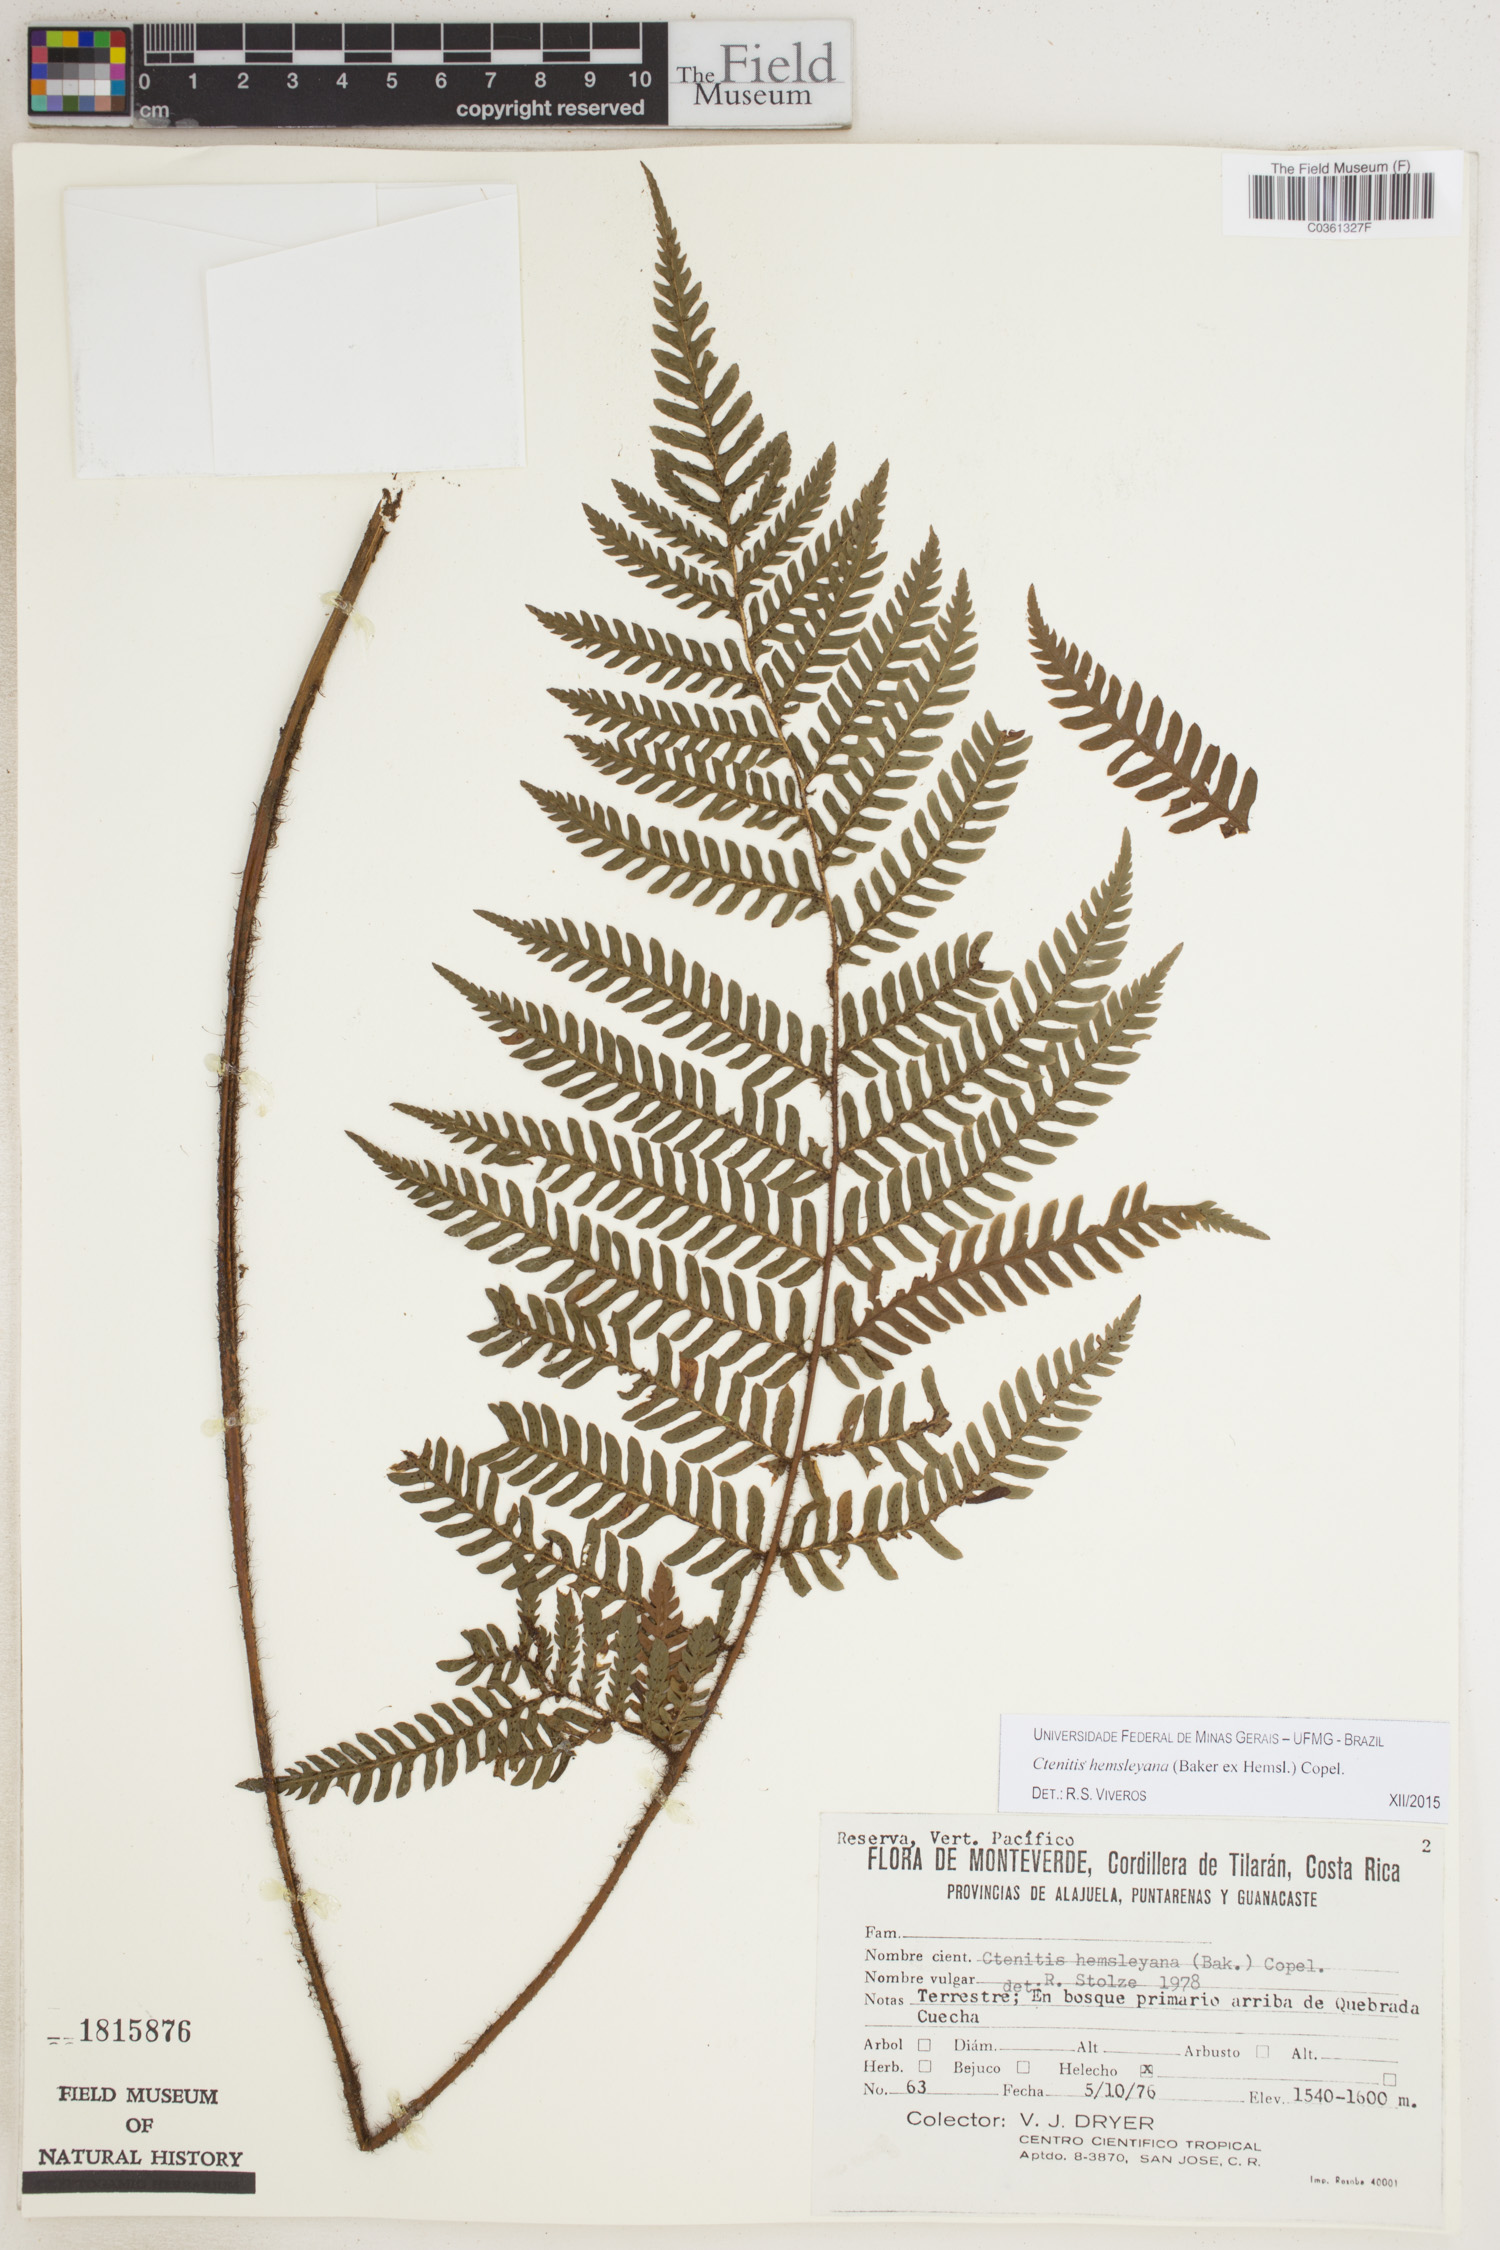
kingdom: Plantae
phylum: Tracheophyta
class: Polypodiopsida
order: Polypodiales
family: Dryopteridaceae
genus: Ctenitis
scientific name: Ctenitis hemsleyana
